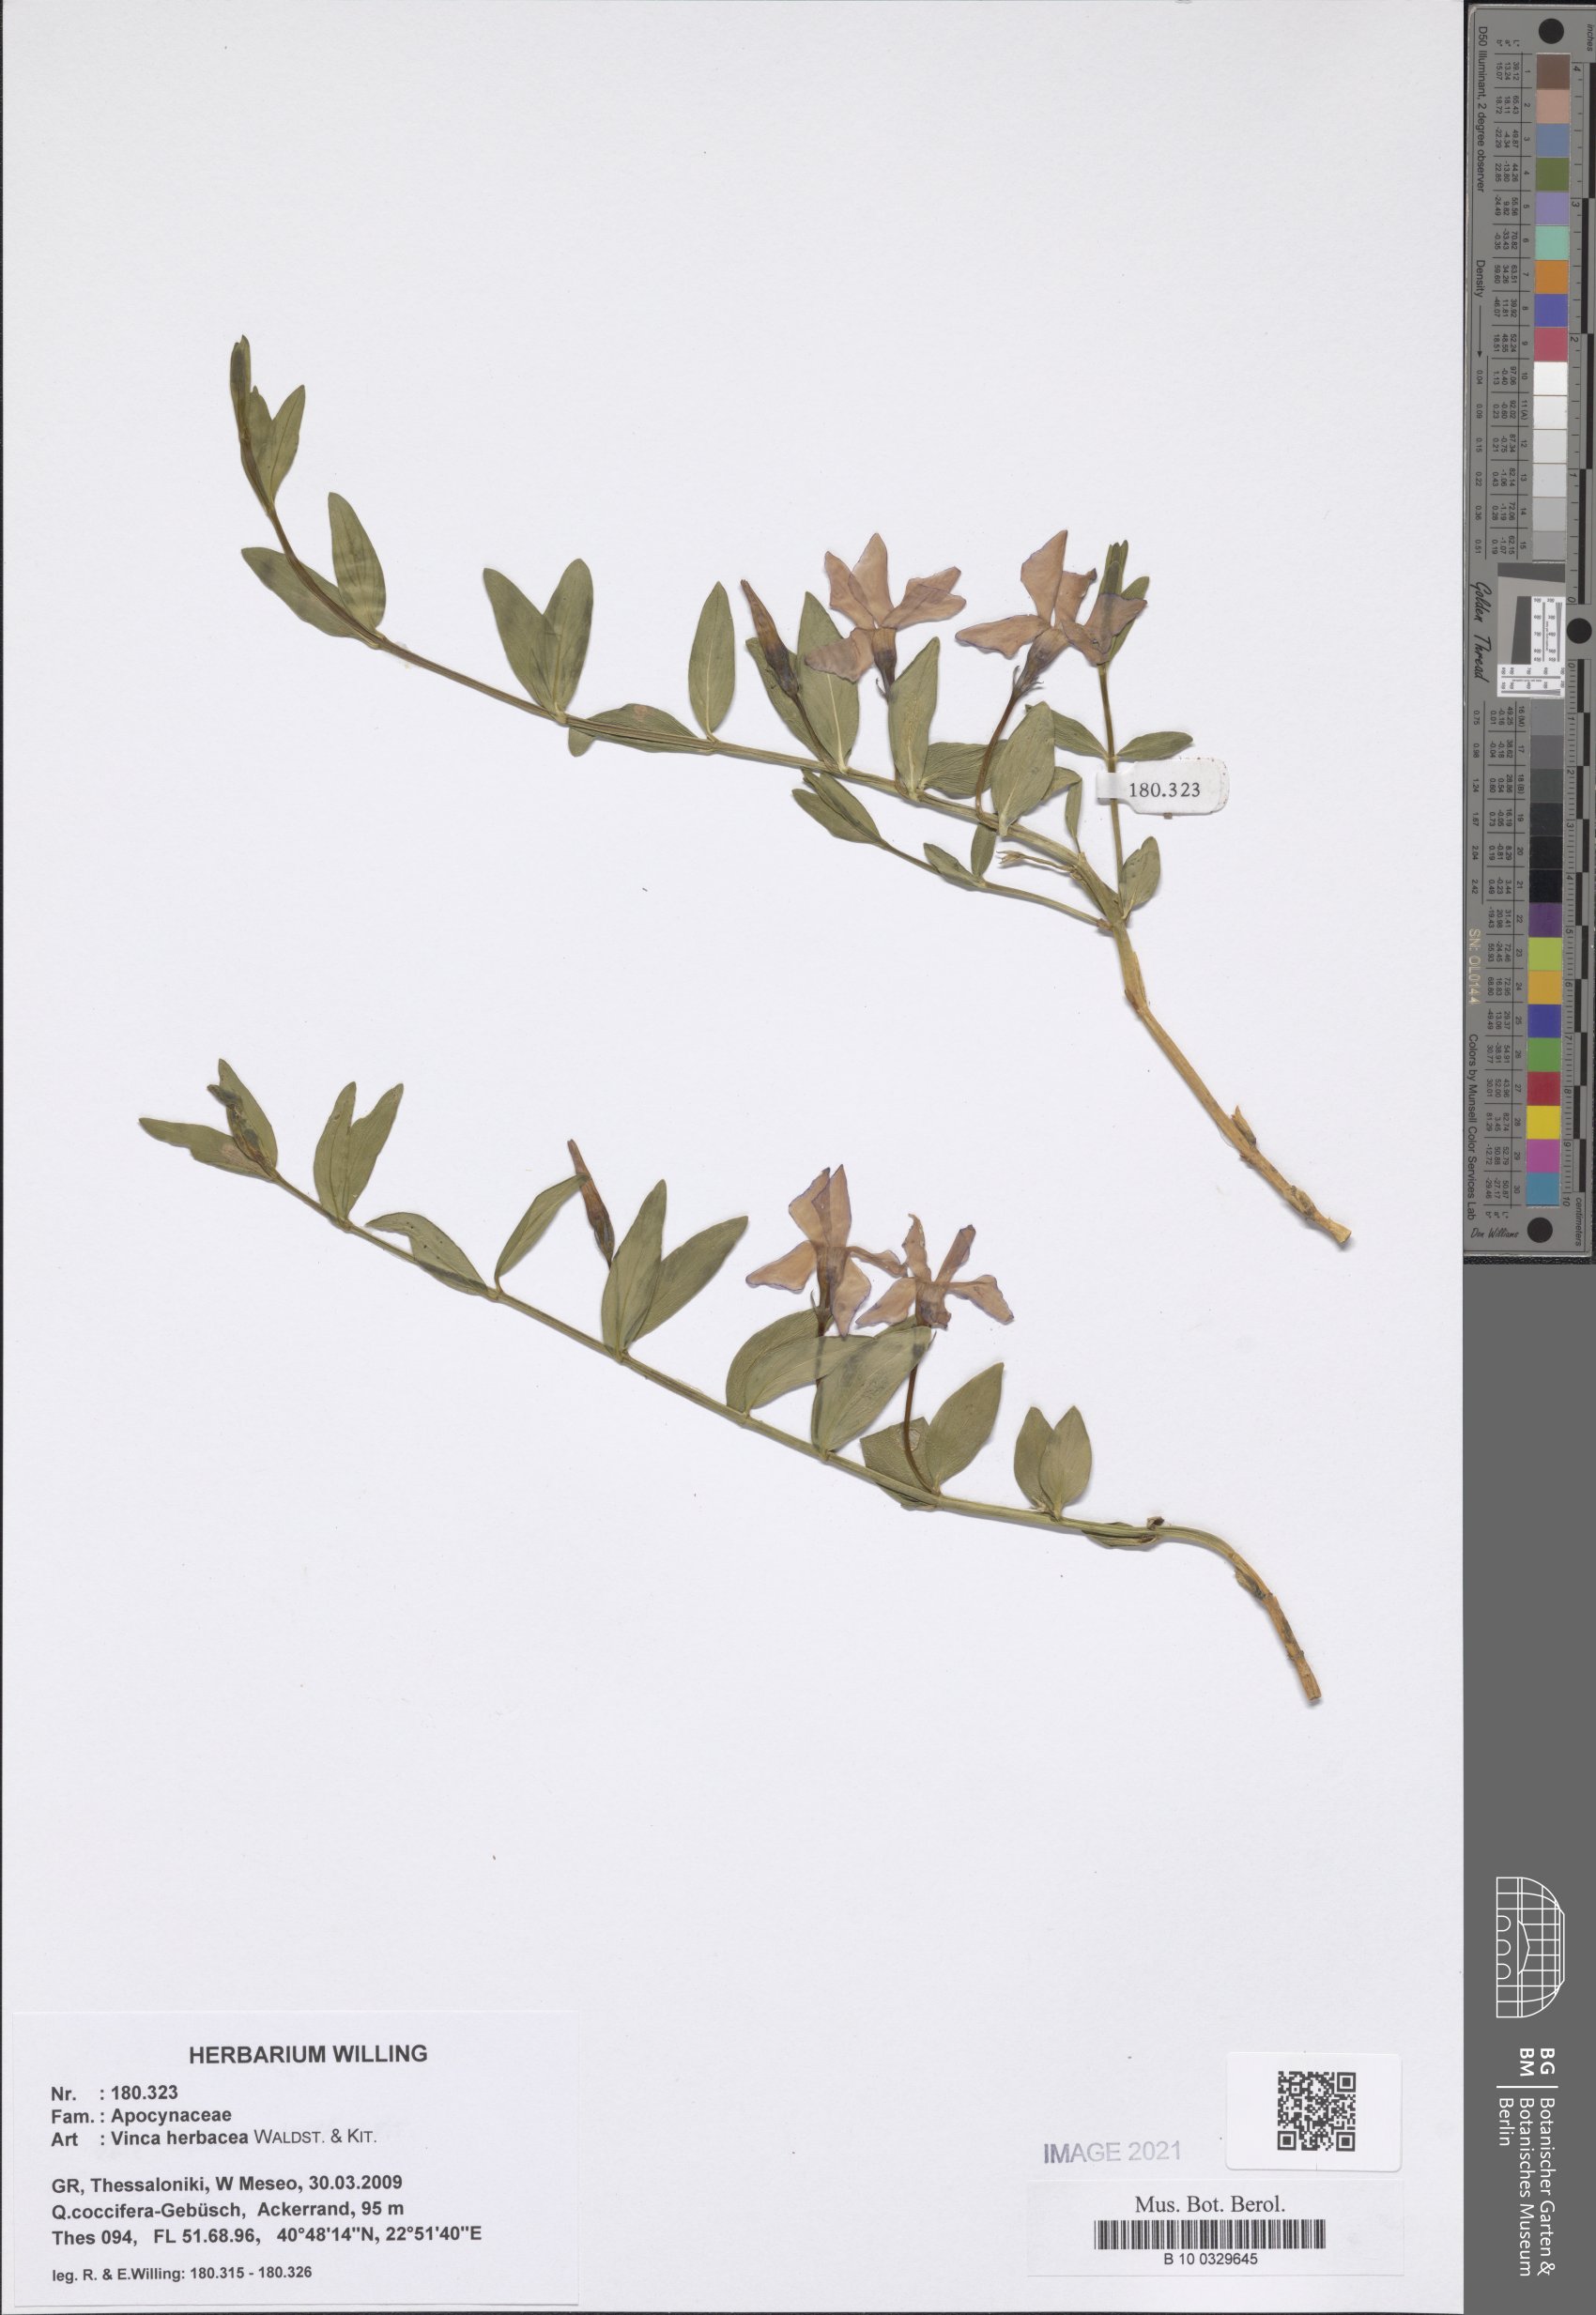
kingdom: Plantae
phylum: Tracheophyta
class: Magnoliopsida
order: Gentianales
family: Apocynaceae
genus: Vinca
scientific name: Vinca herbacea
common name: Herbaceous periwinkle
